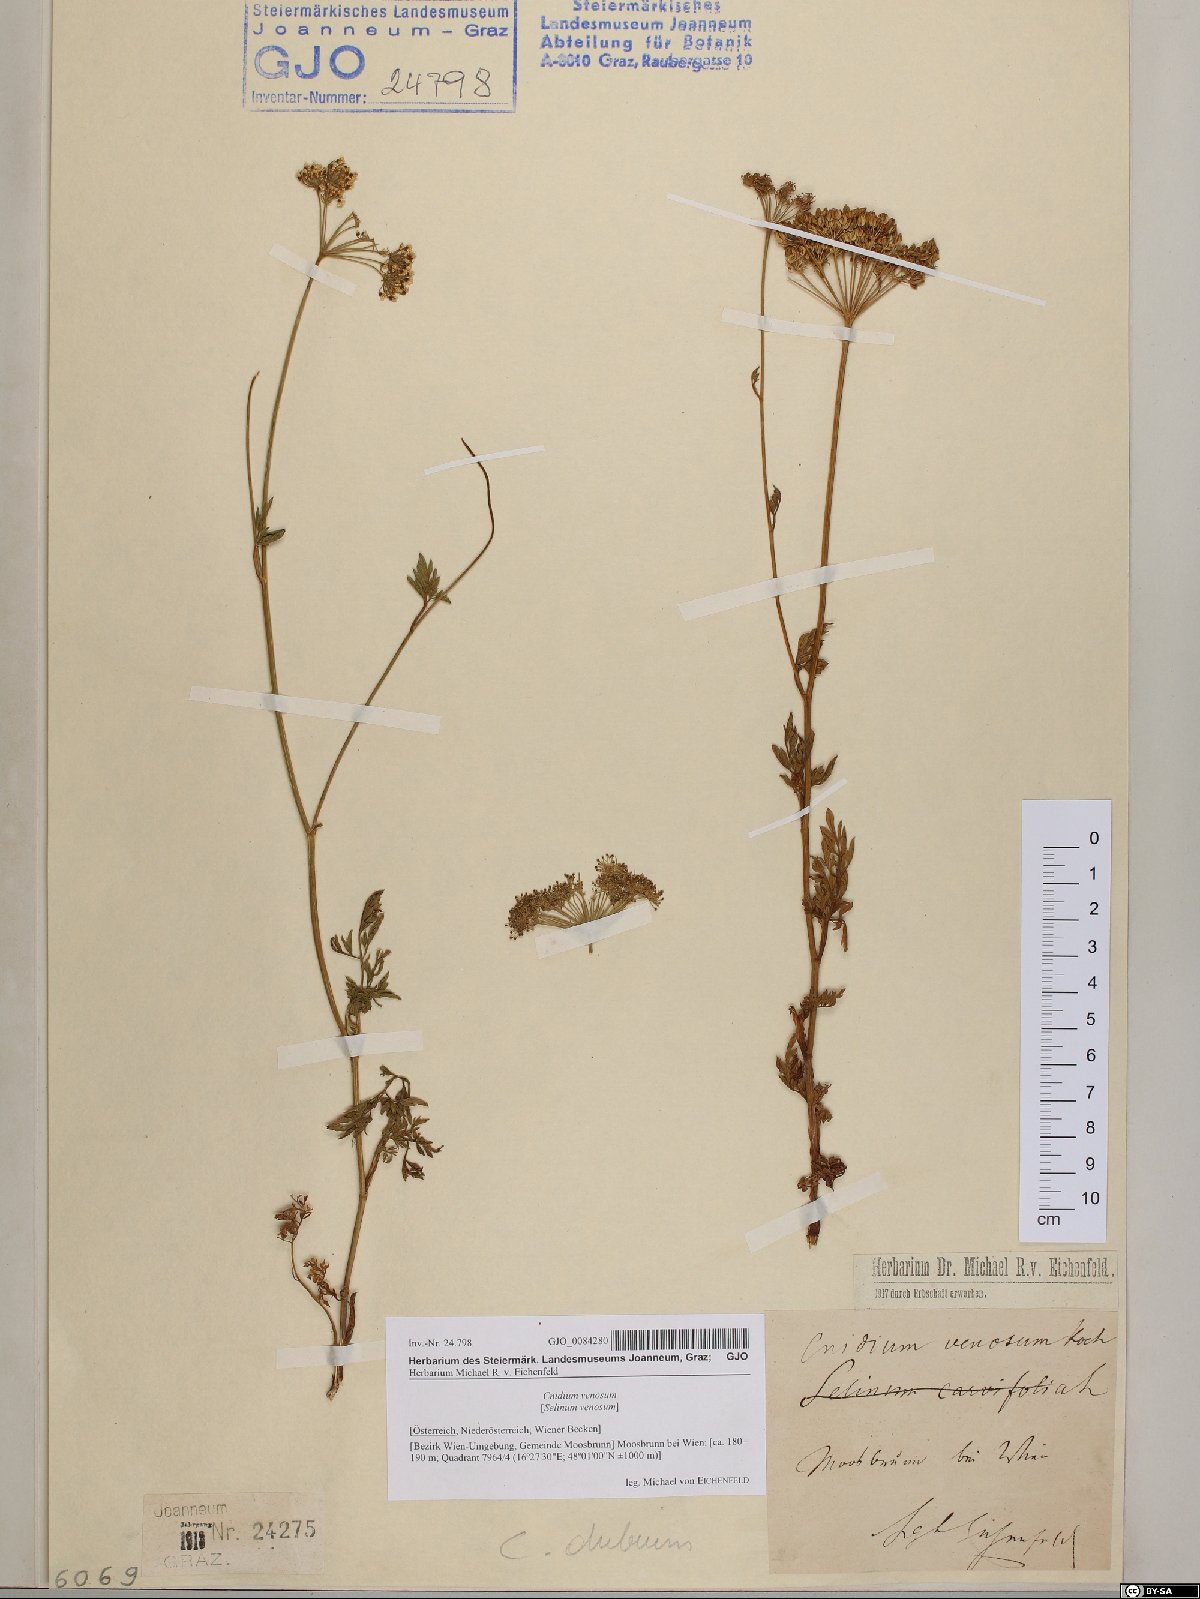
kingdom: Plantae
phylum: Tracheophyta
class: Magnoliopsida
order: Apiales
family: Apiaceae
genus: Kadenia
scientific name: Kadenia dubia
